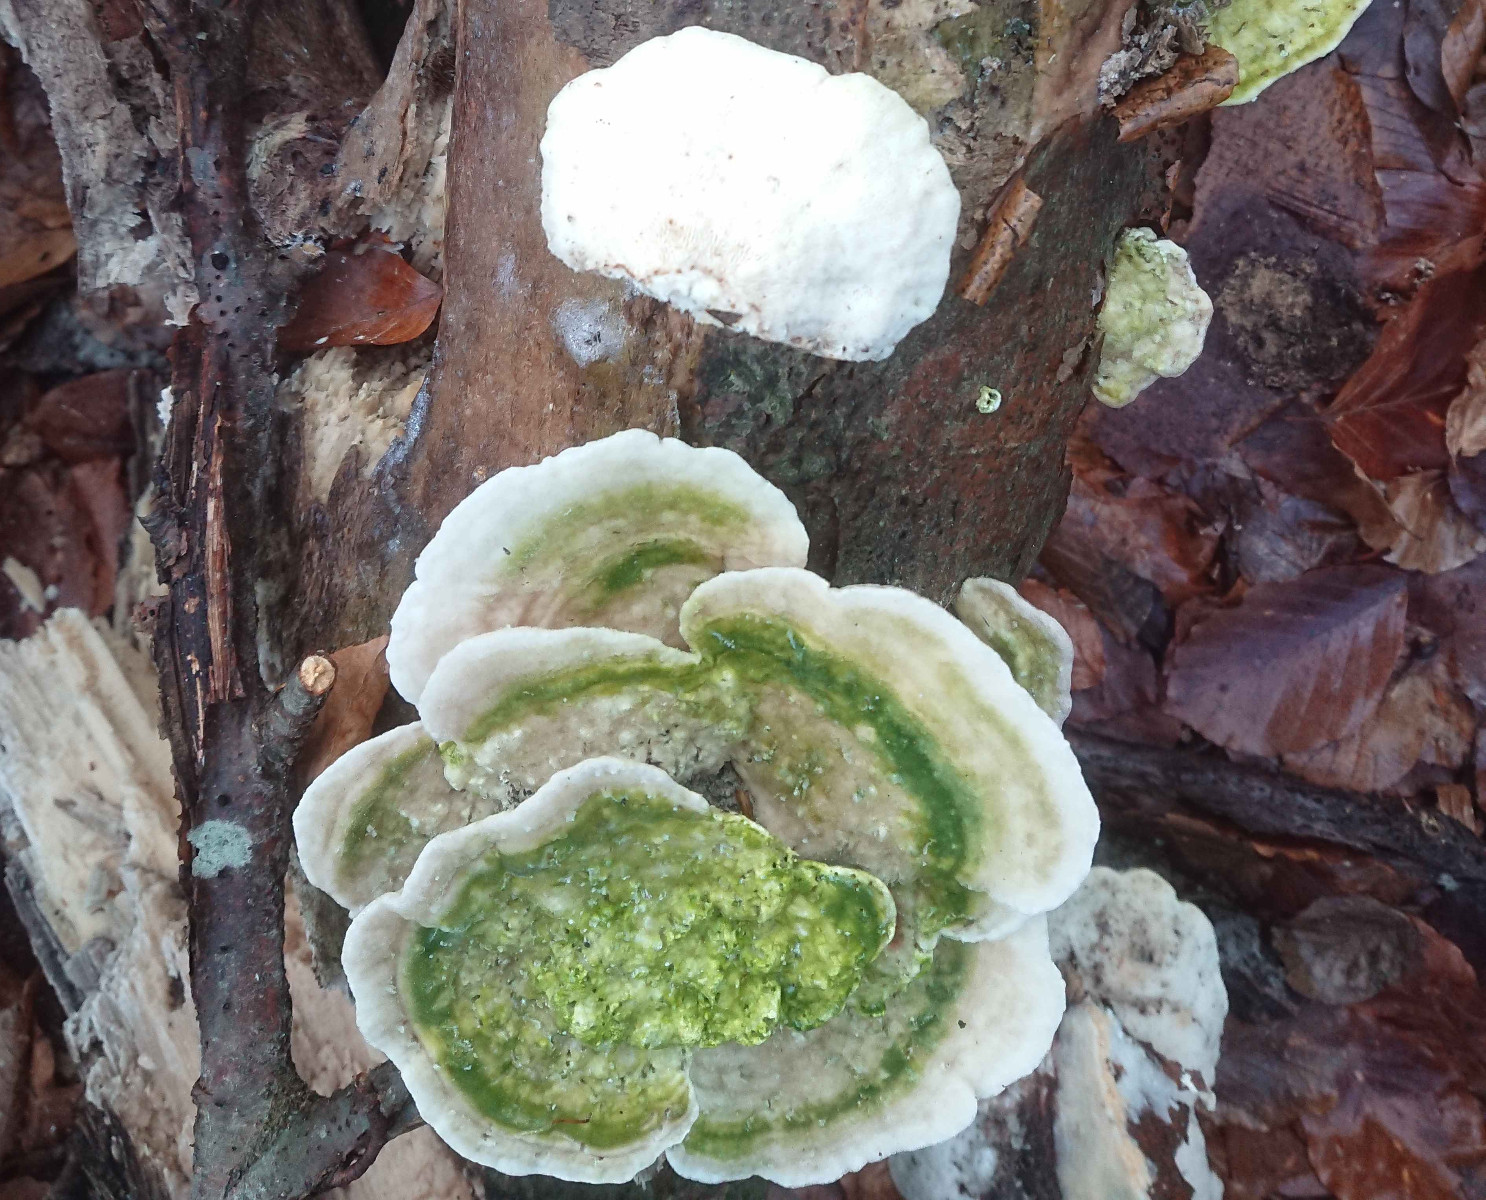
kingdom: Fungi
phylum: Basidiomycota
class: Agaricomycetes
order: Polyporales
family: Polyporaceae
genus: Trametes
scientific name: Trametes gibbosa
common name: puklet læderporesvamp
